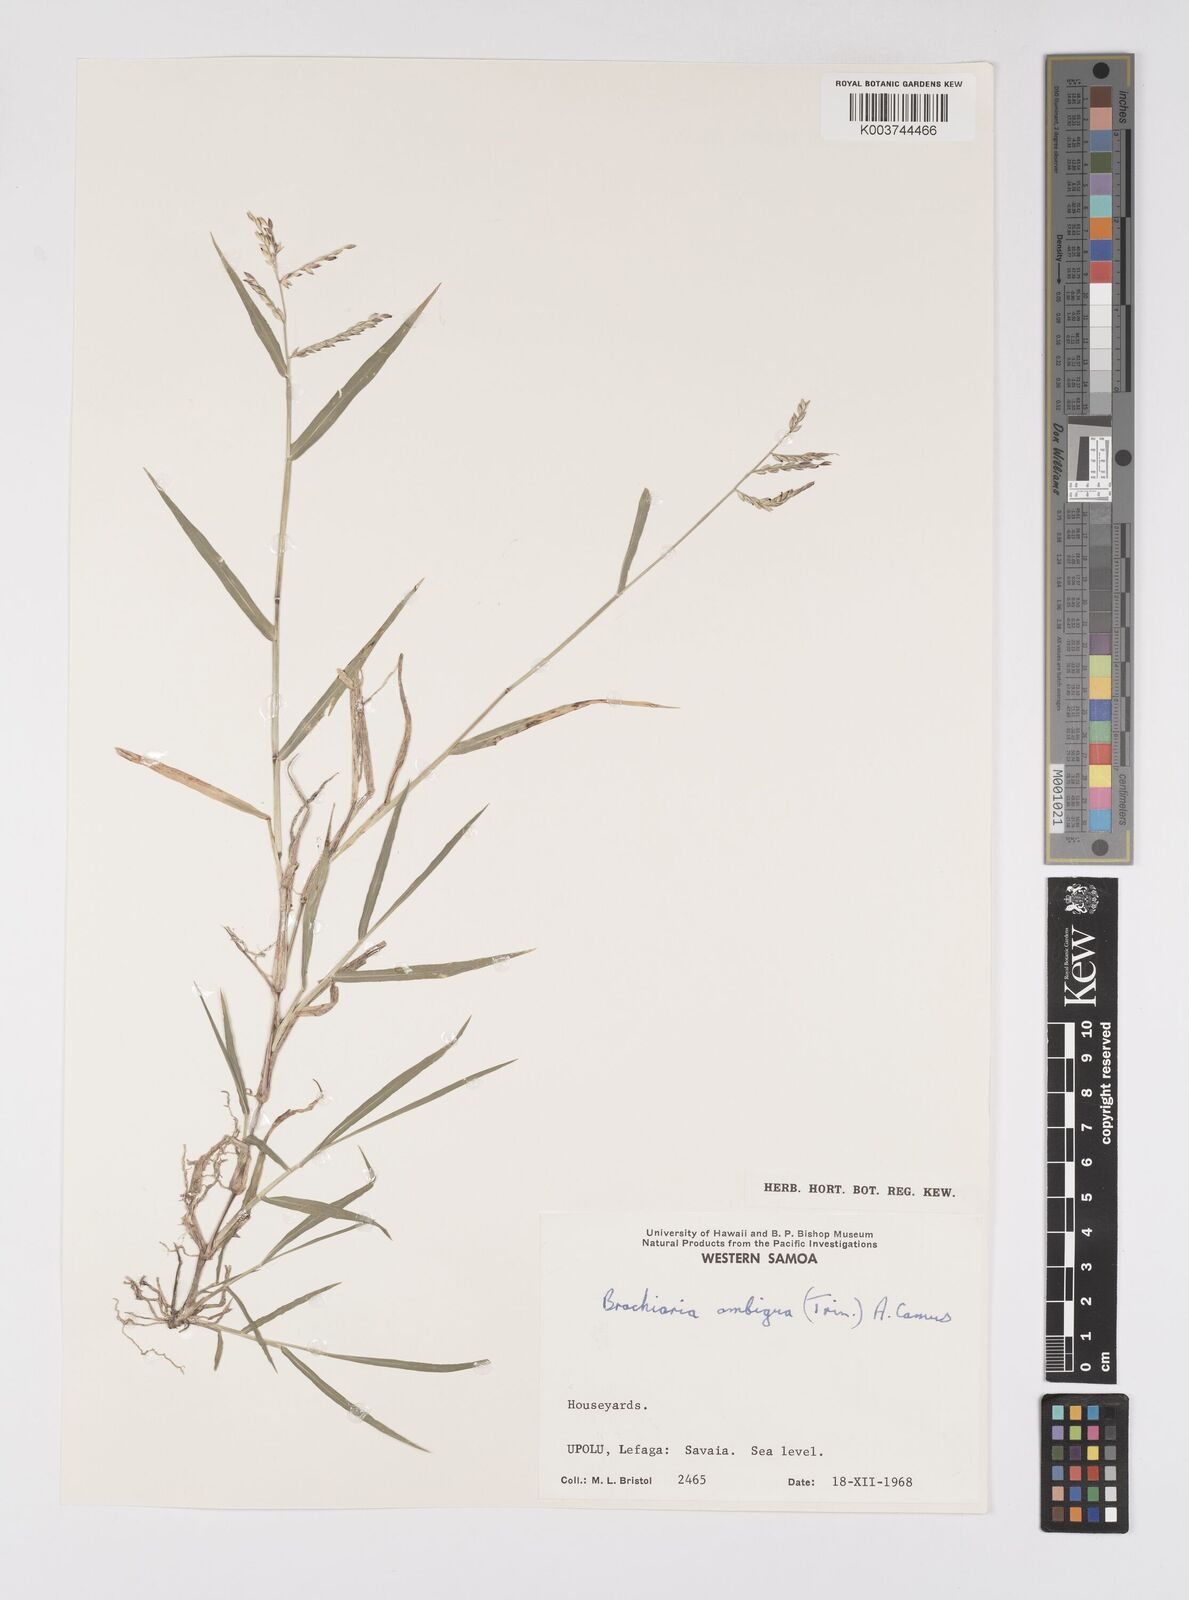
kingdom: Plantae
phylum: Tracheophyta
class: Liliopsida
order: Poales
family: Poaceae
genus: Urochloa
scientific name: Urochloa glumaris
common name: Thurston grass
